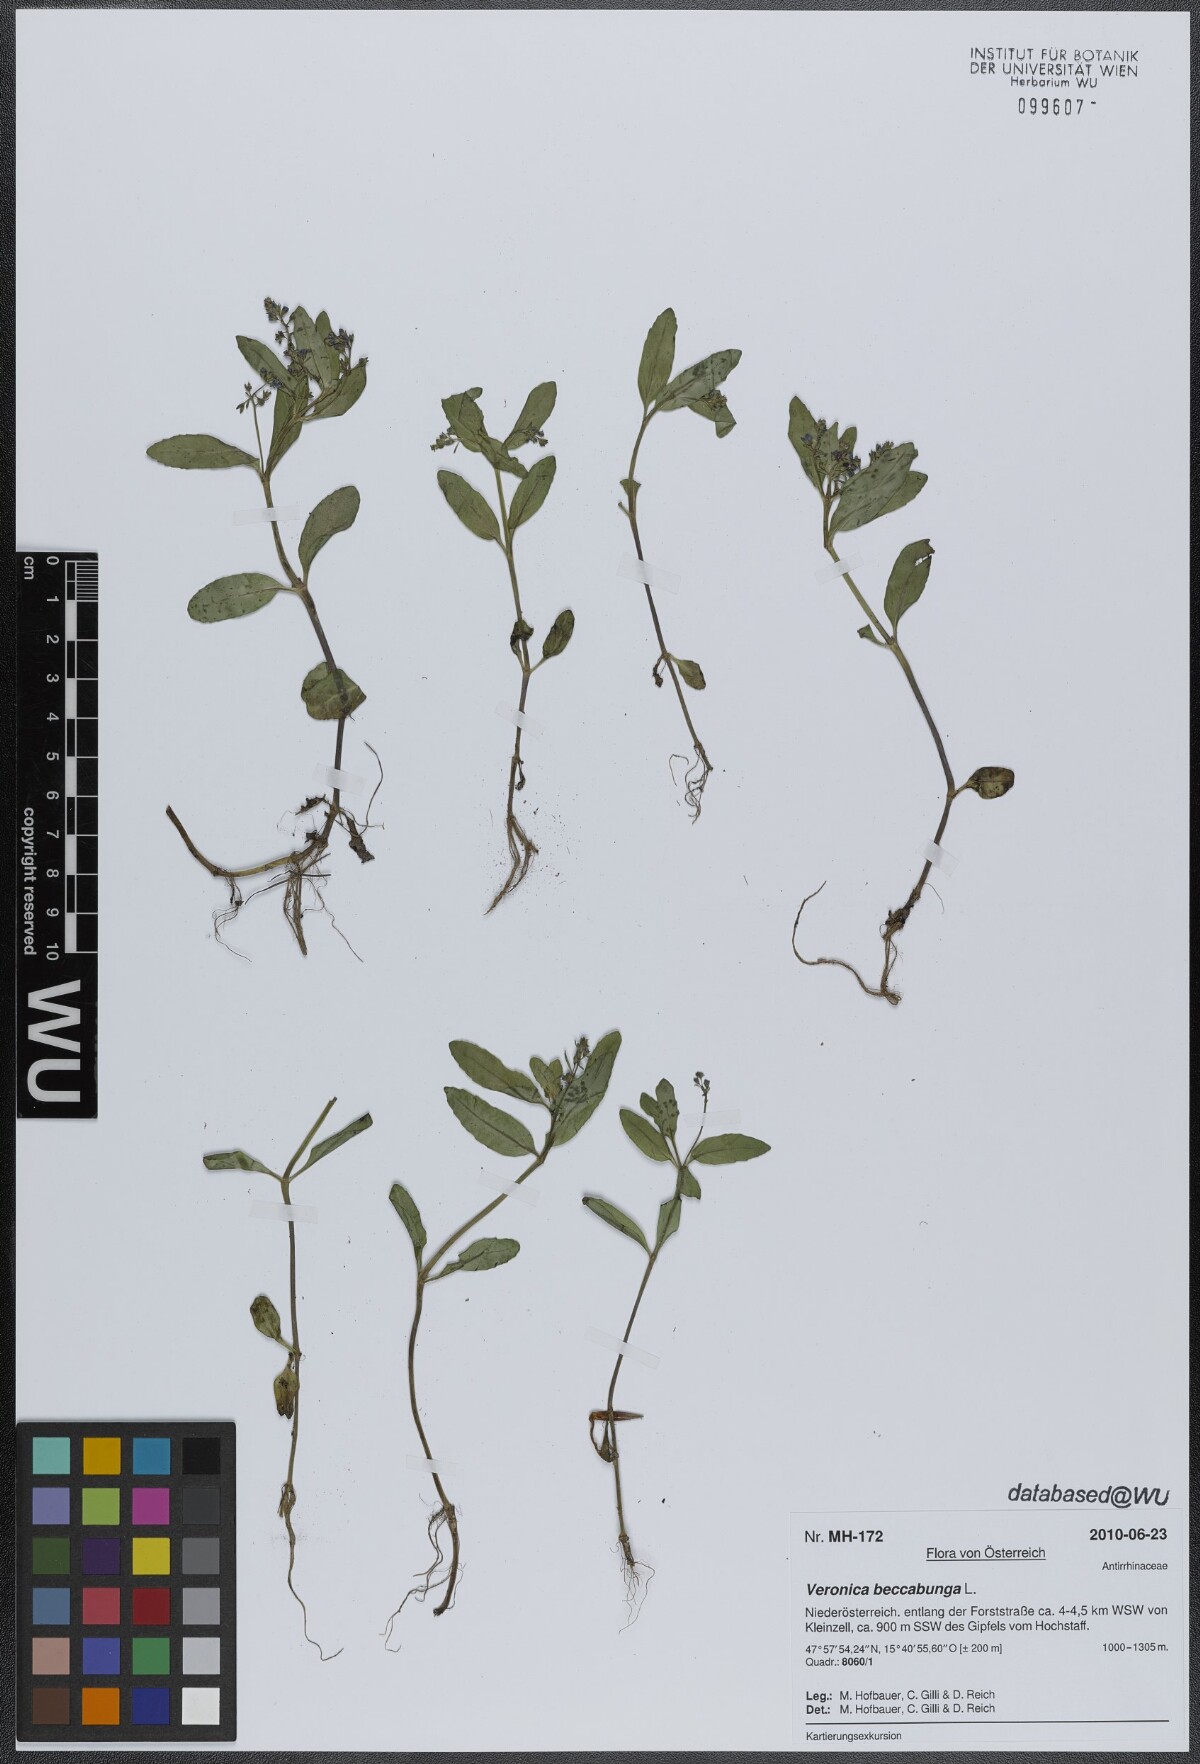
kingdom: Plantae
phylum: Tracheophyta
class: Magnoliopsida
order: Lamiales
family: Plantaginaceae
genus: Veronica
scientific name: Veronica beccabunga
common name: Brooklime
